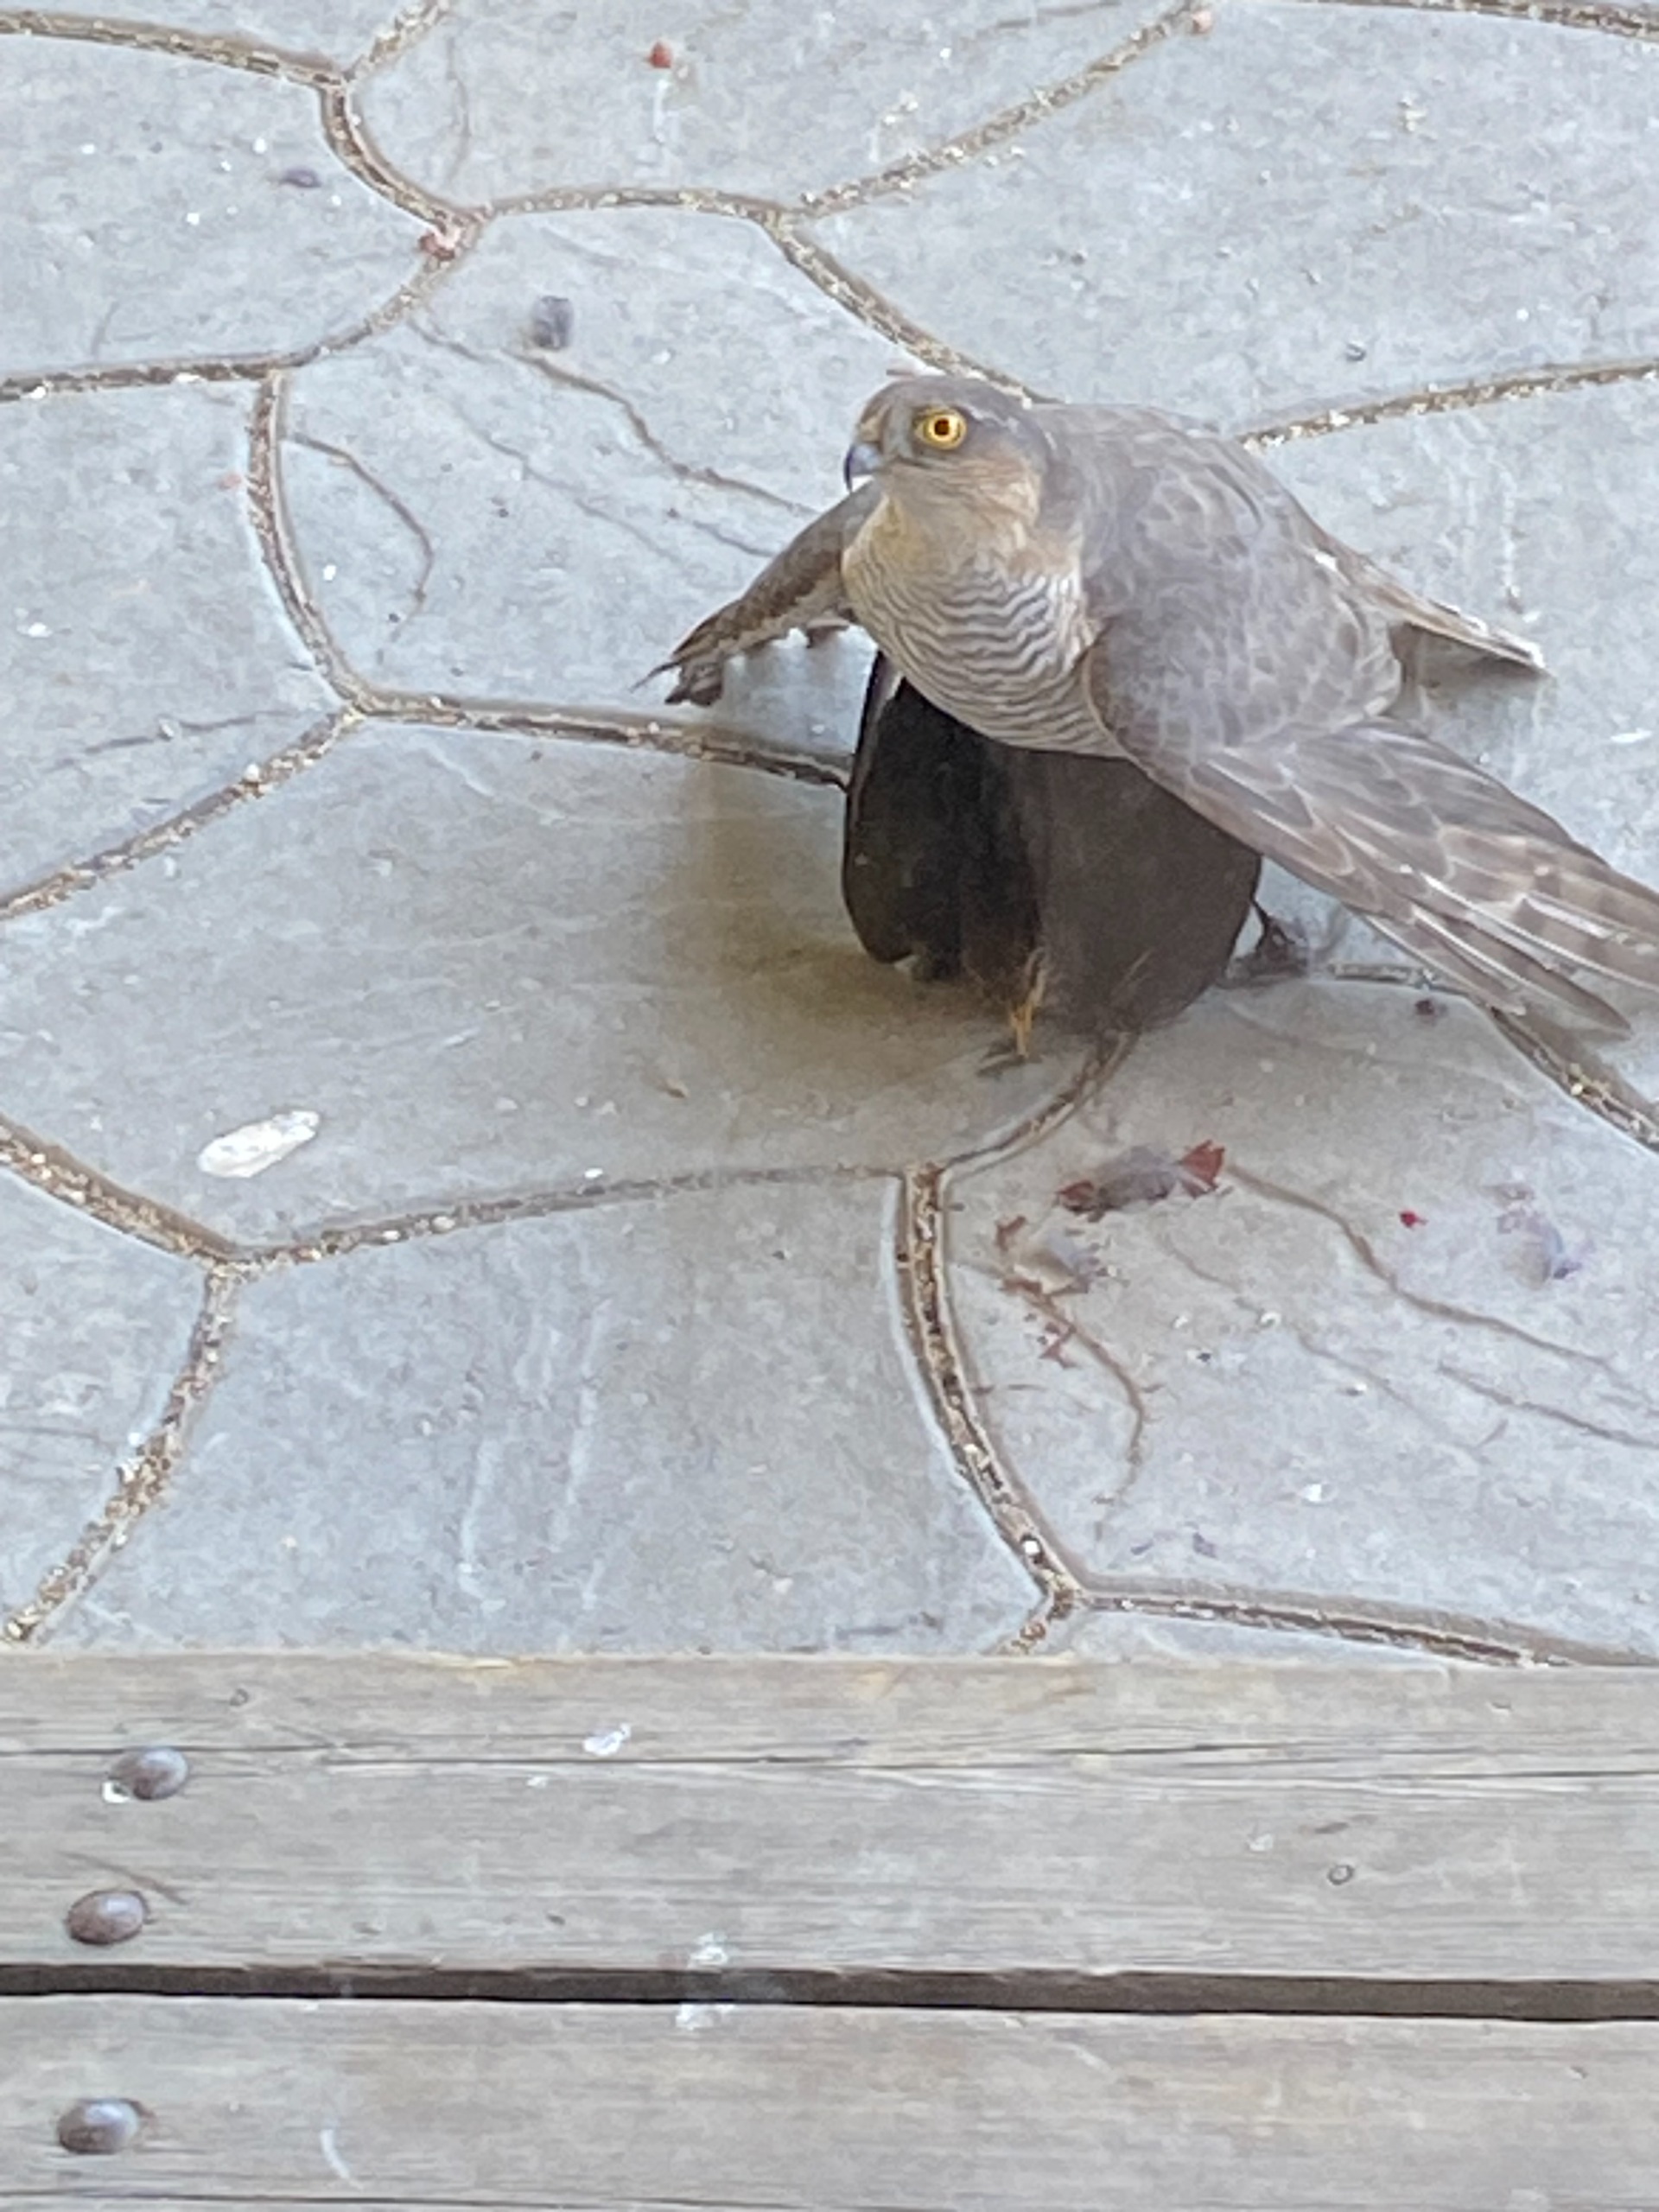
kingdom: Animalia
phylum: Chordata
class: Aves
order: Accipitriformes
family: Accipitridae
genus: Accipiter
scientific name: Accipiter nisus
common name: Spurvehøg
